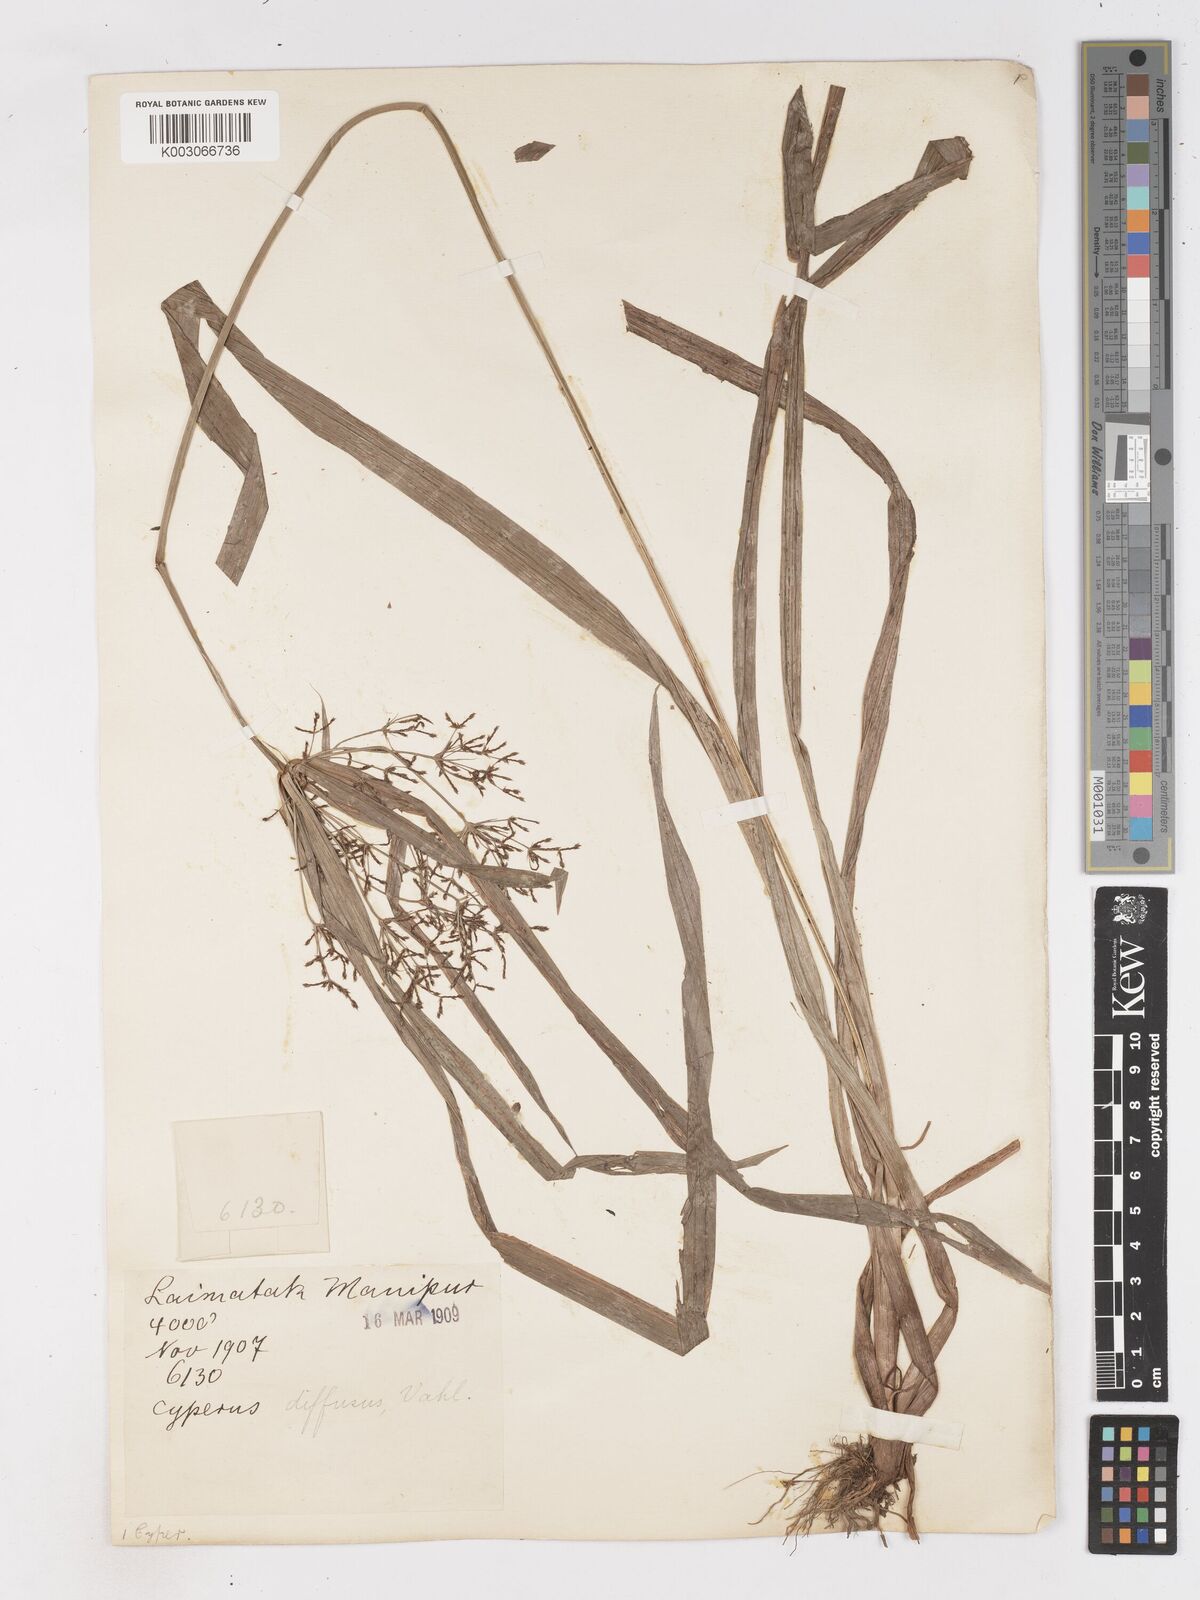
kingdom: Plantae
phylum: Tracheophyta
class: Liliopsida
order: Poales
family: Cyperaceae
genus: Cyperus
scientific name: Cyperus diffusus
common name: Dwarf umbrella grass
